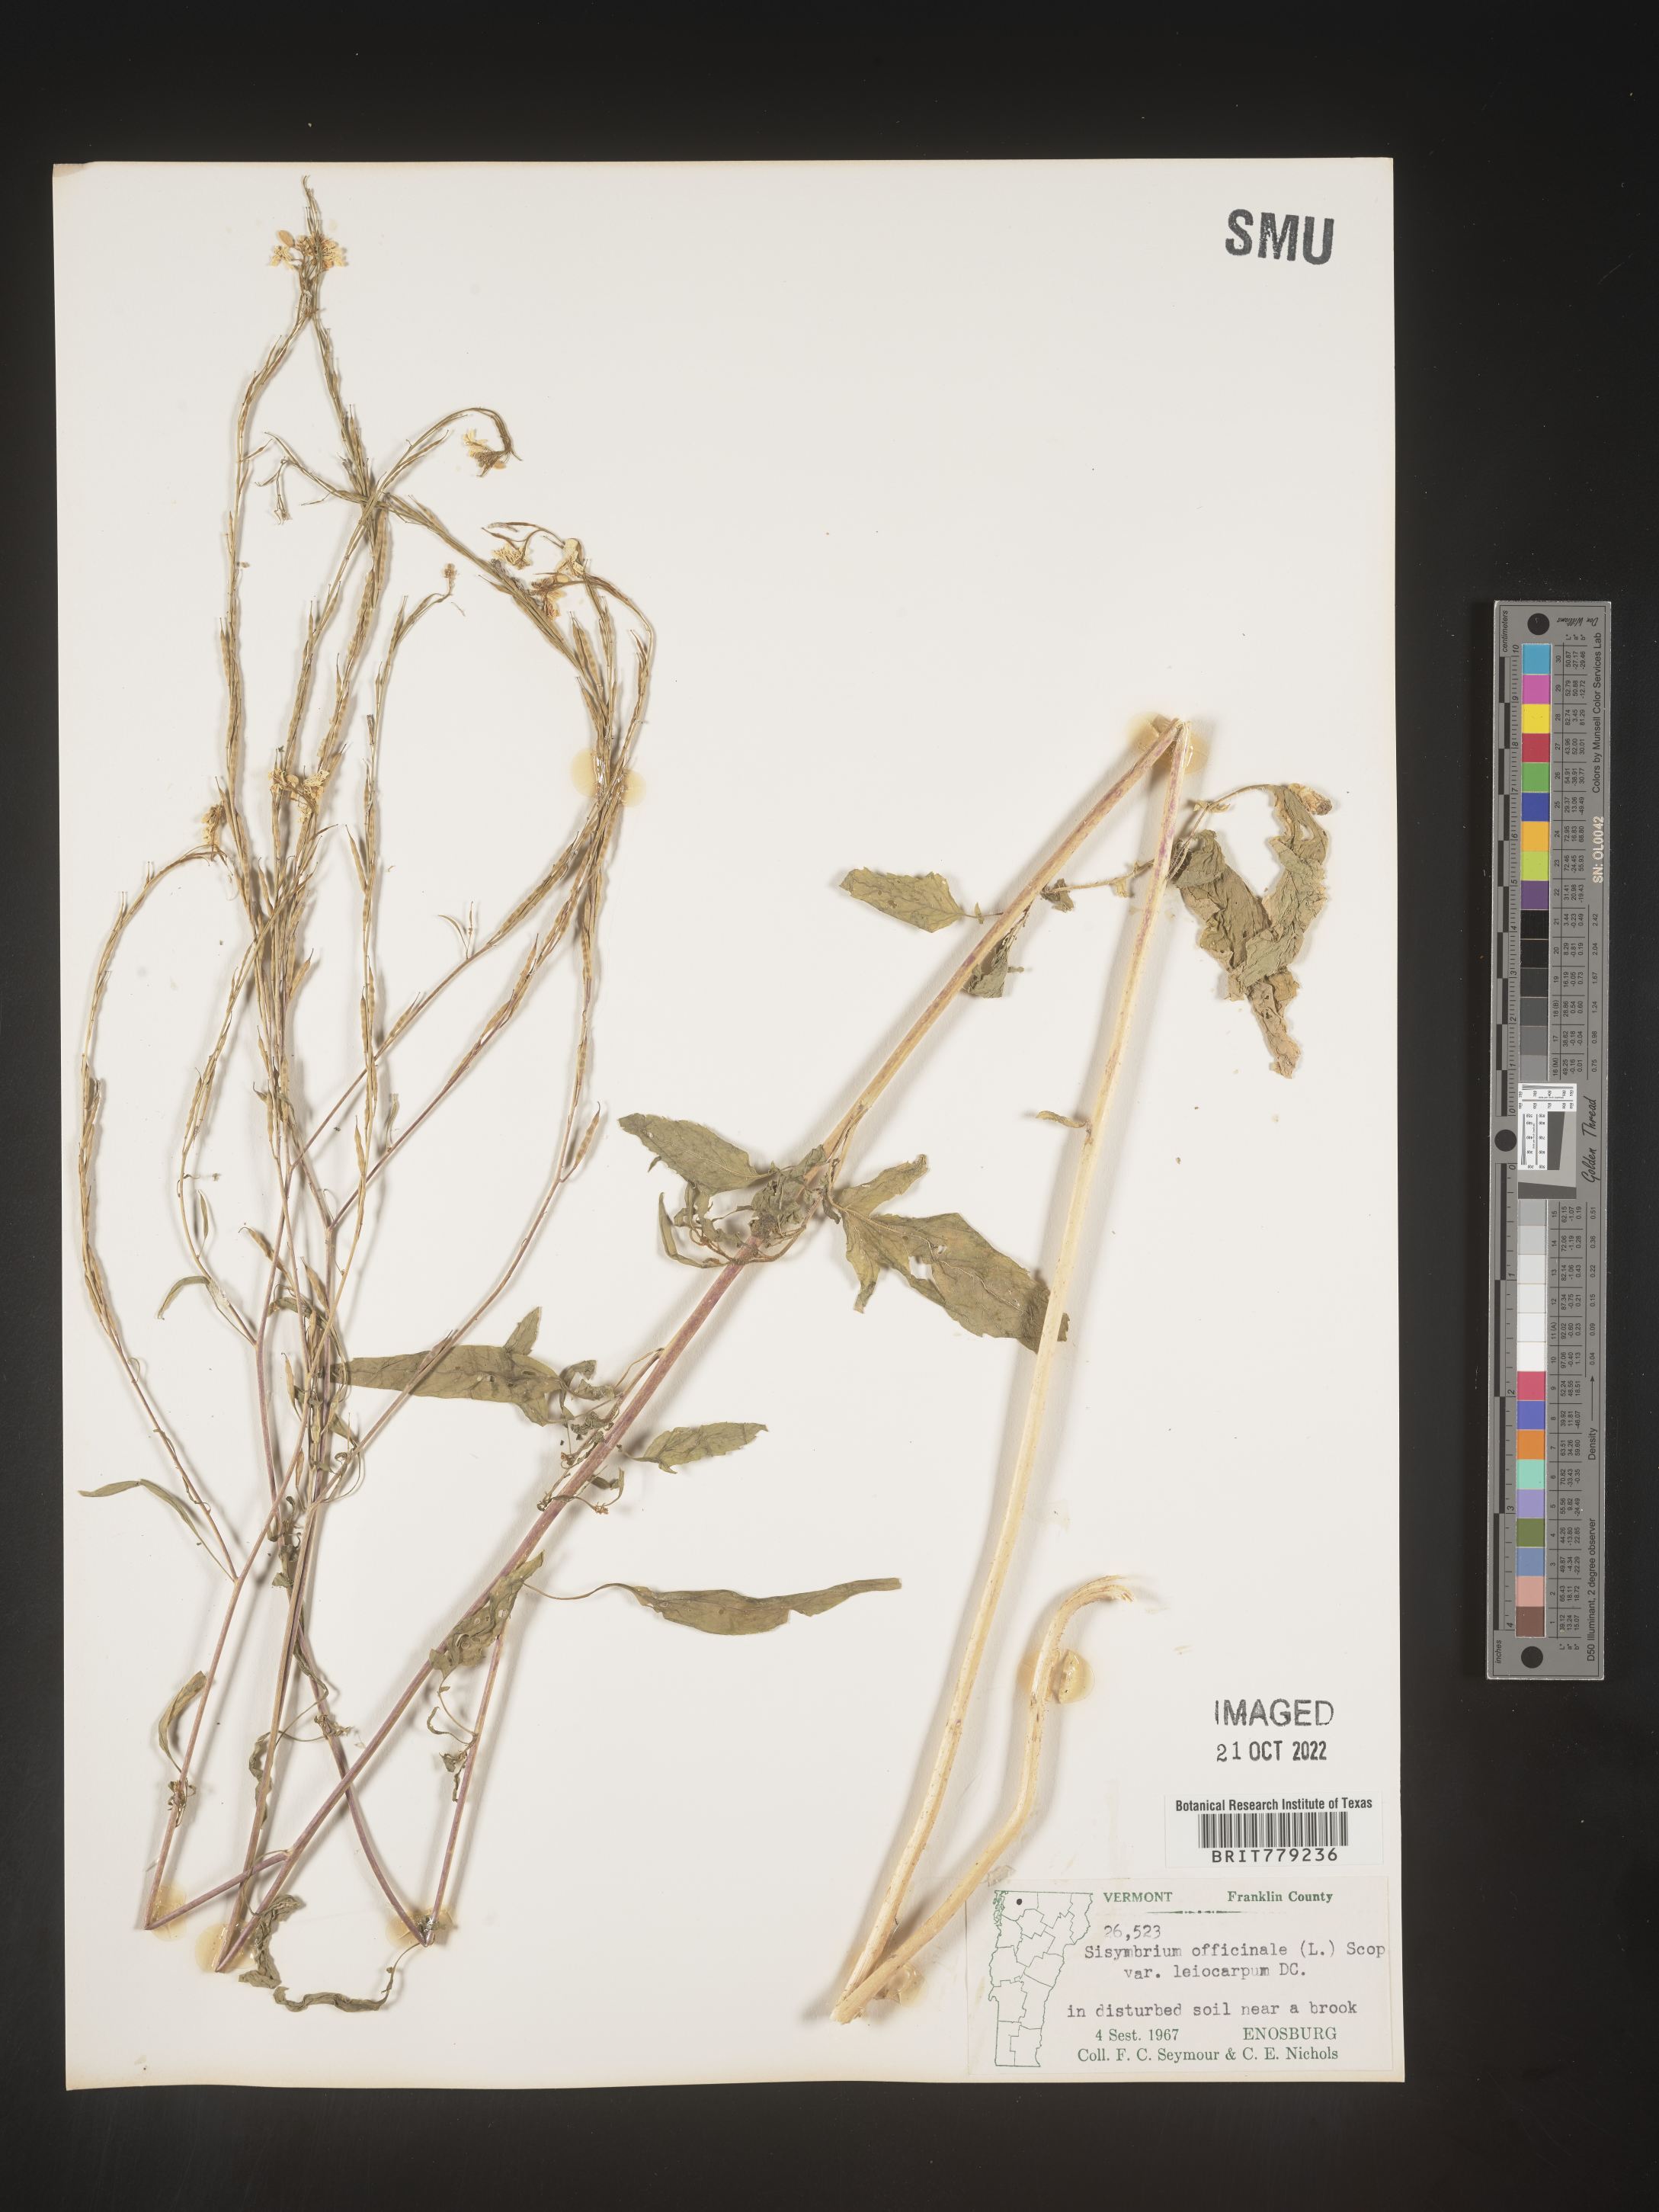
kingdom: Plantae
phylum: Tracheophyta
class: Magnoliopsida
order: Brassicales
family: Brassicaceae
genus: Sisymbrium
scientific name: Sisymbrium officinale
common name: Hedge mustard
